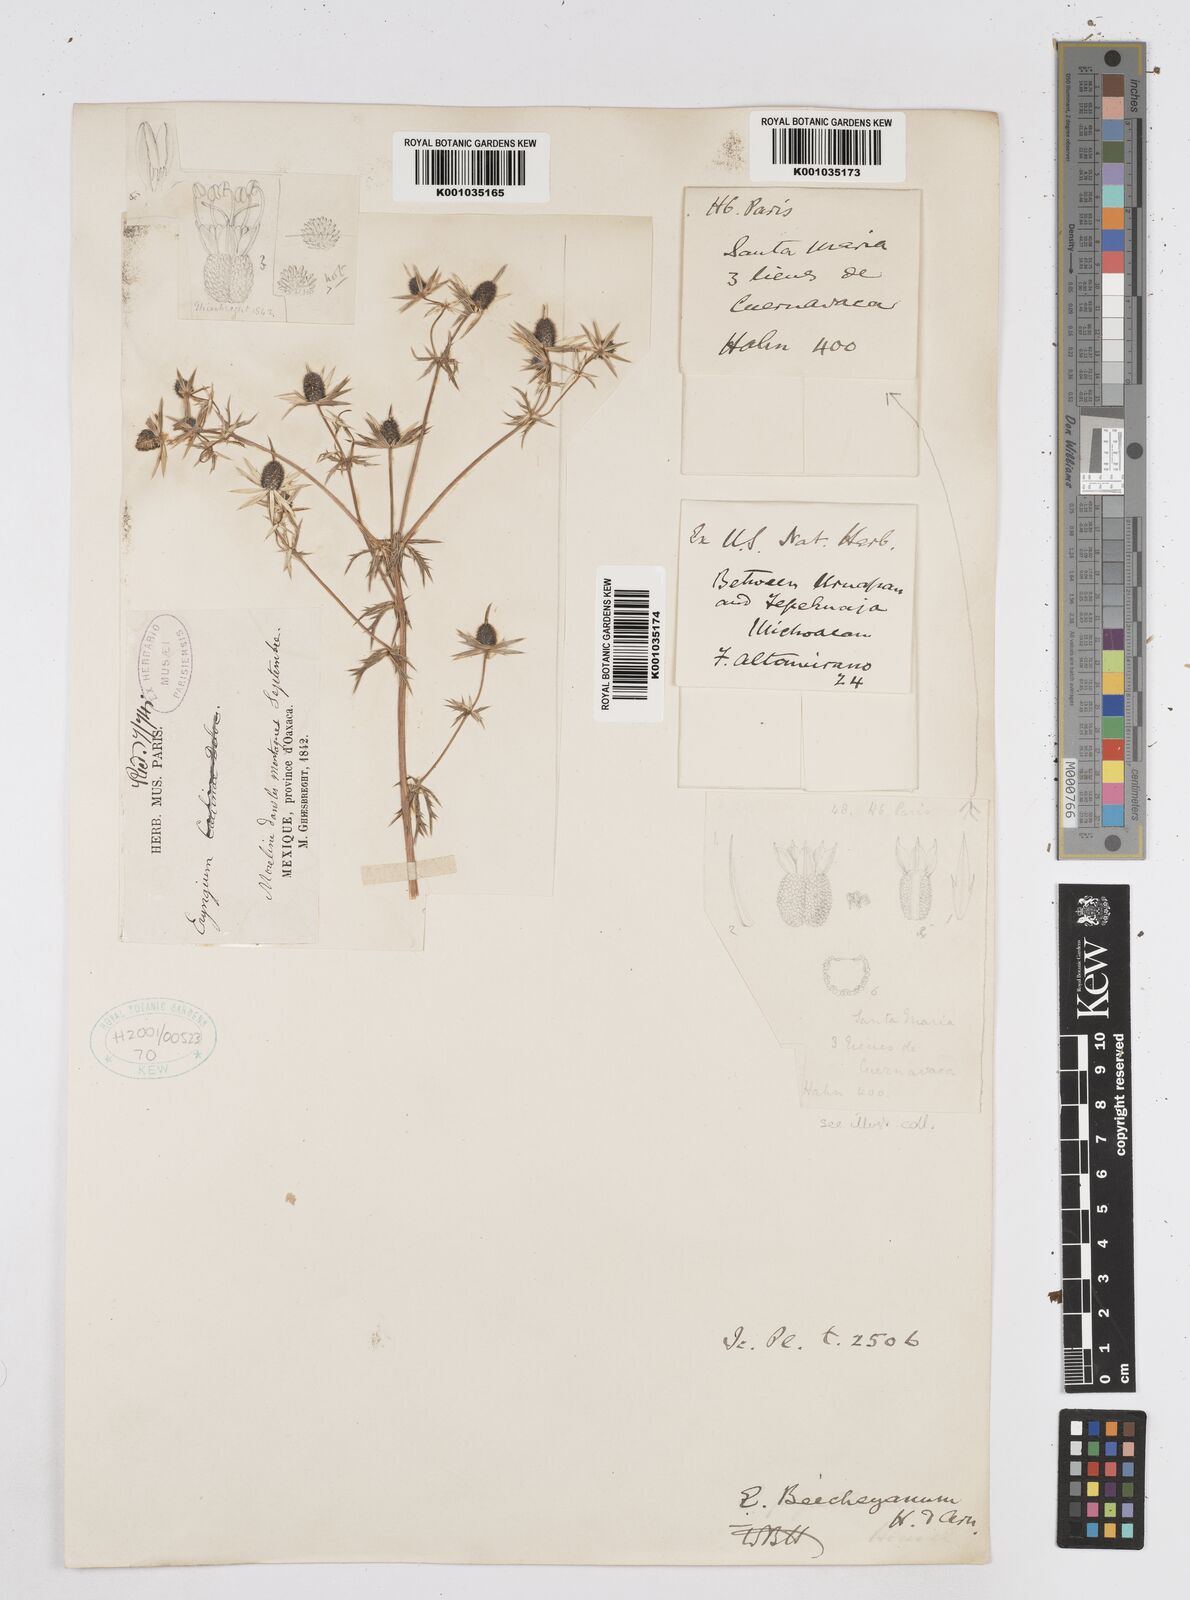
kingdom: Plantae
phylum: Tracheophyta
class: Magnoliopsida
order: Apiales
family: Apiaceae
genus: Eryngium
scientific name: Eryngium beecheyanum
